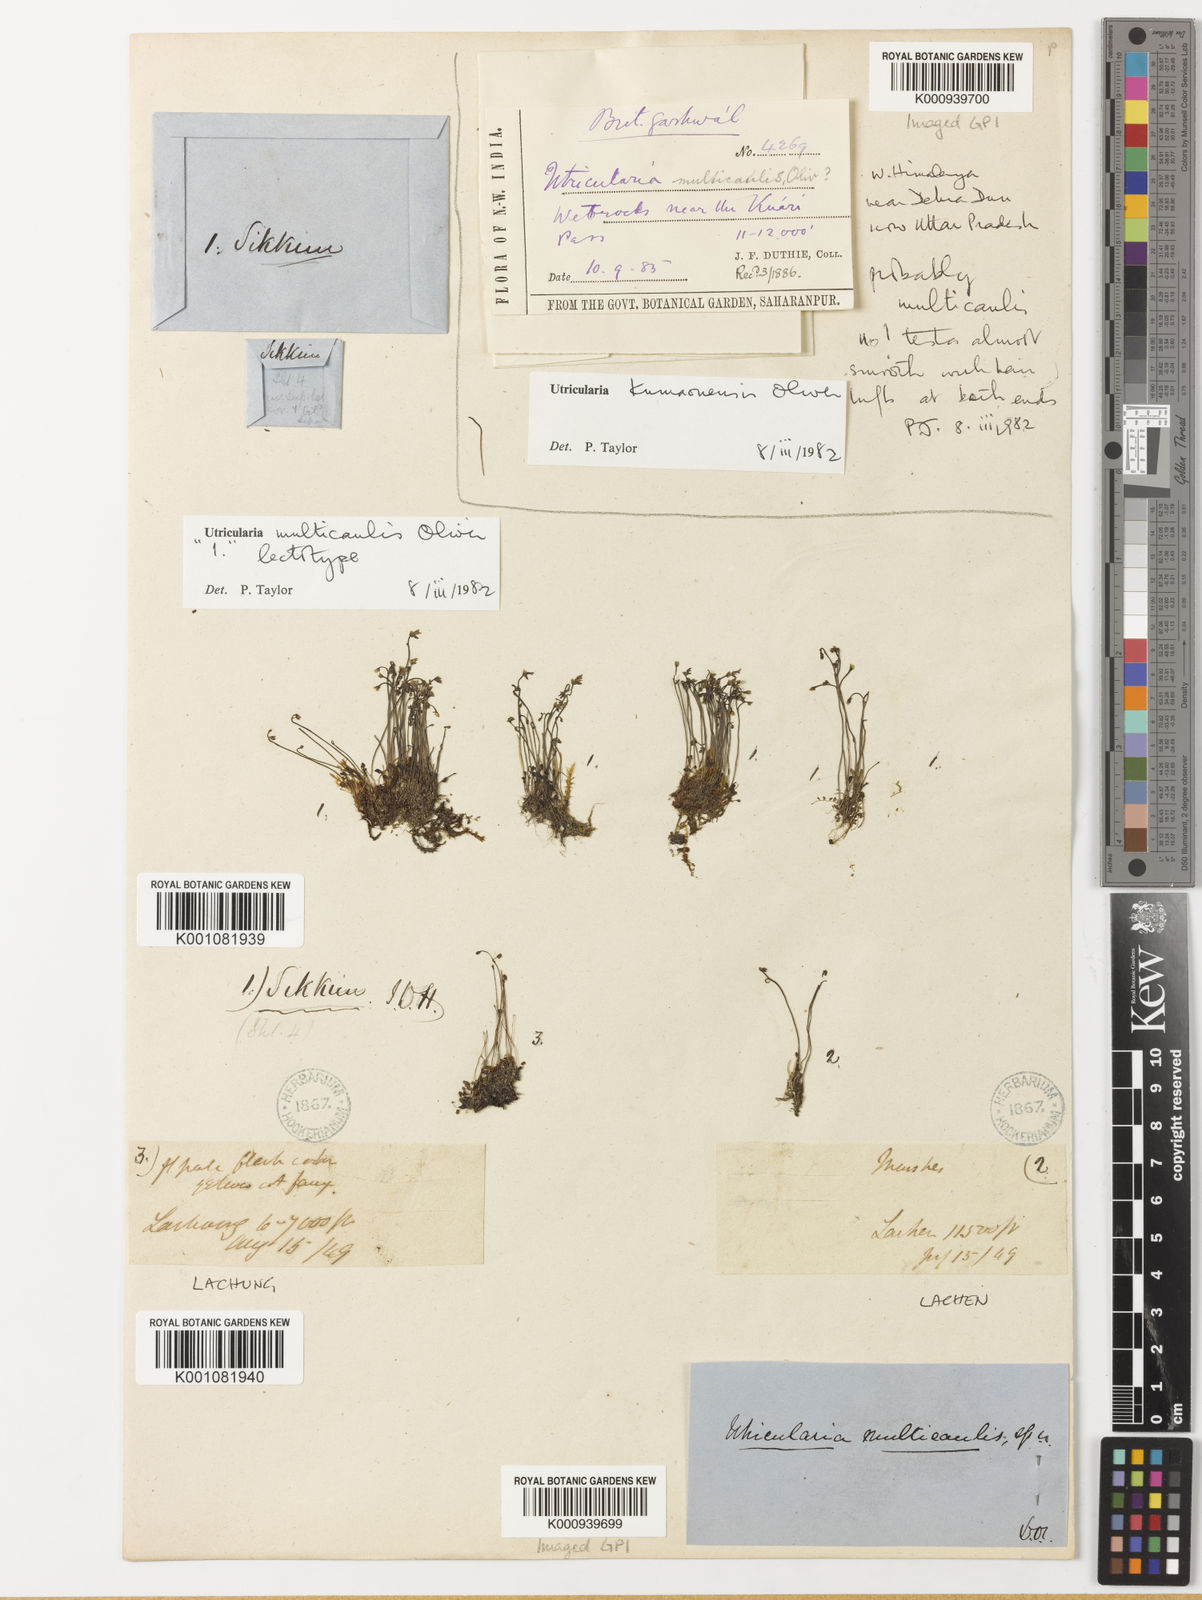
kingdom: Plantae
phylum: Tracheophyta
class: Magnoliopsida
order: Lamiales
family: Lentibulariaceae
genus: Utricularia
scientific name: Utricularia multicaulis
